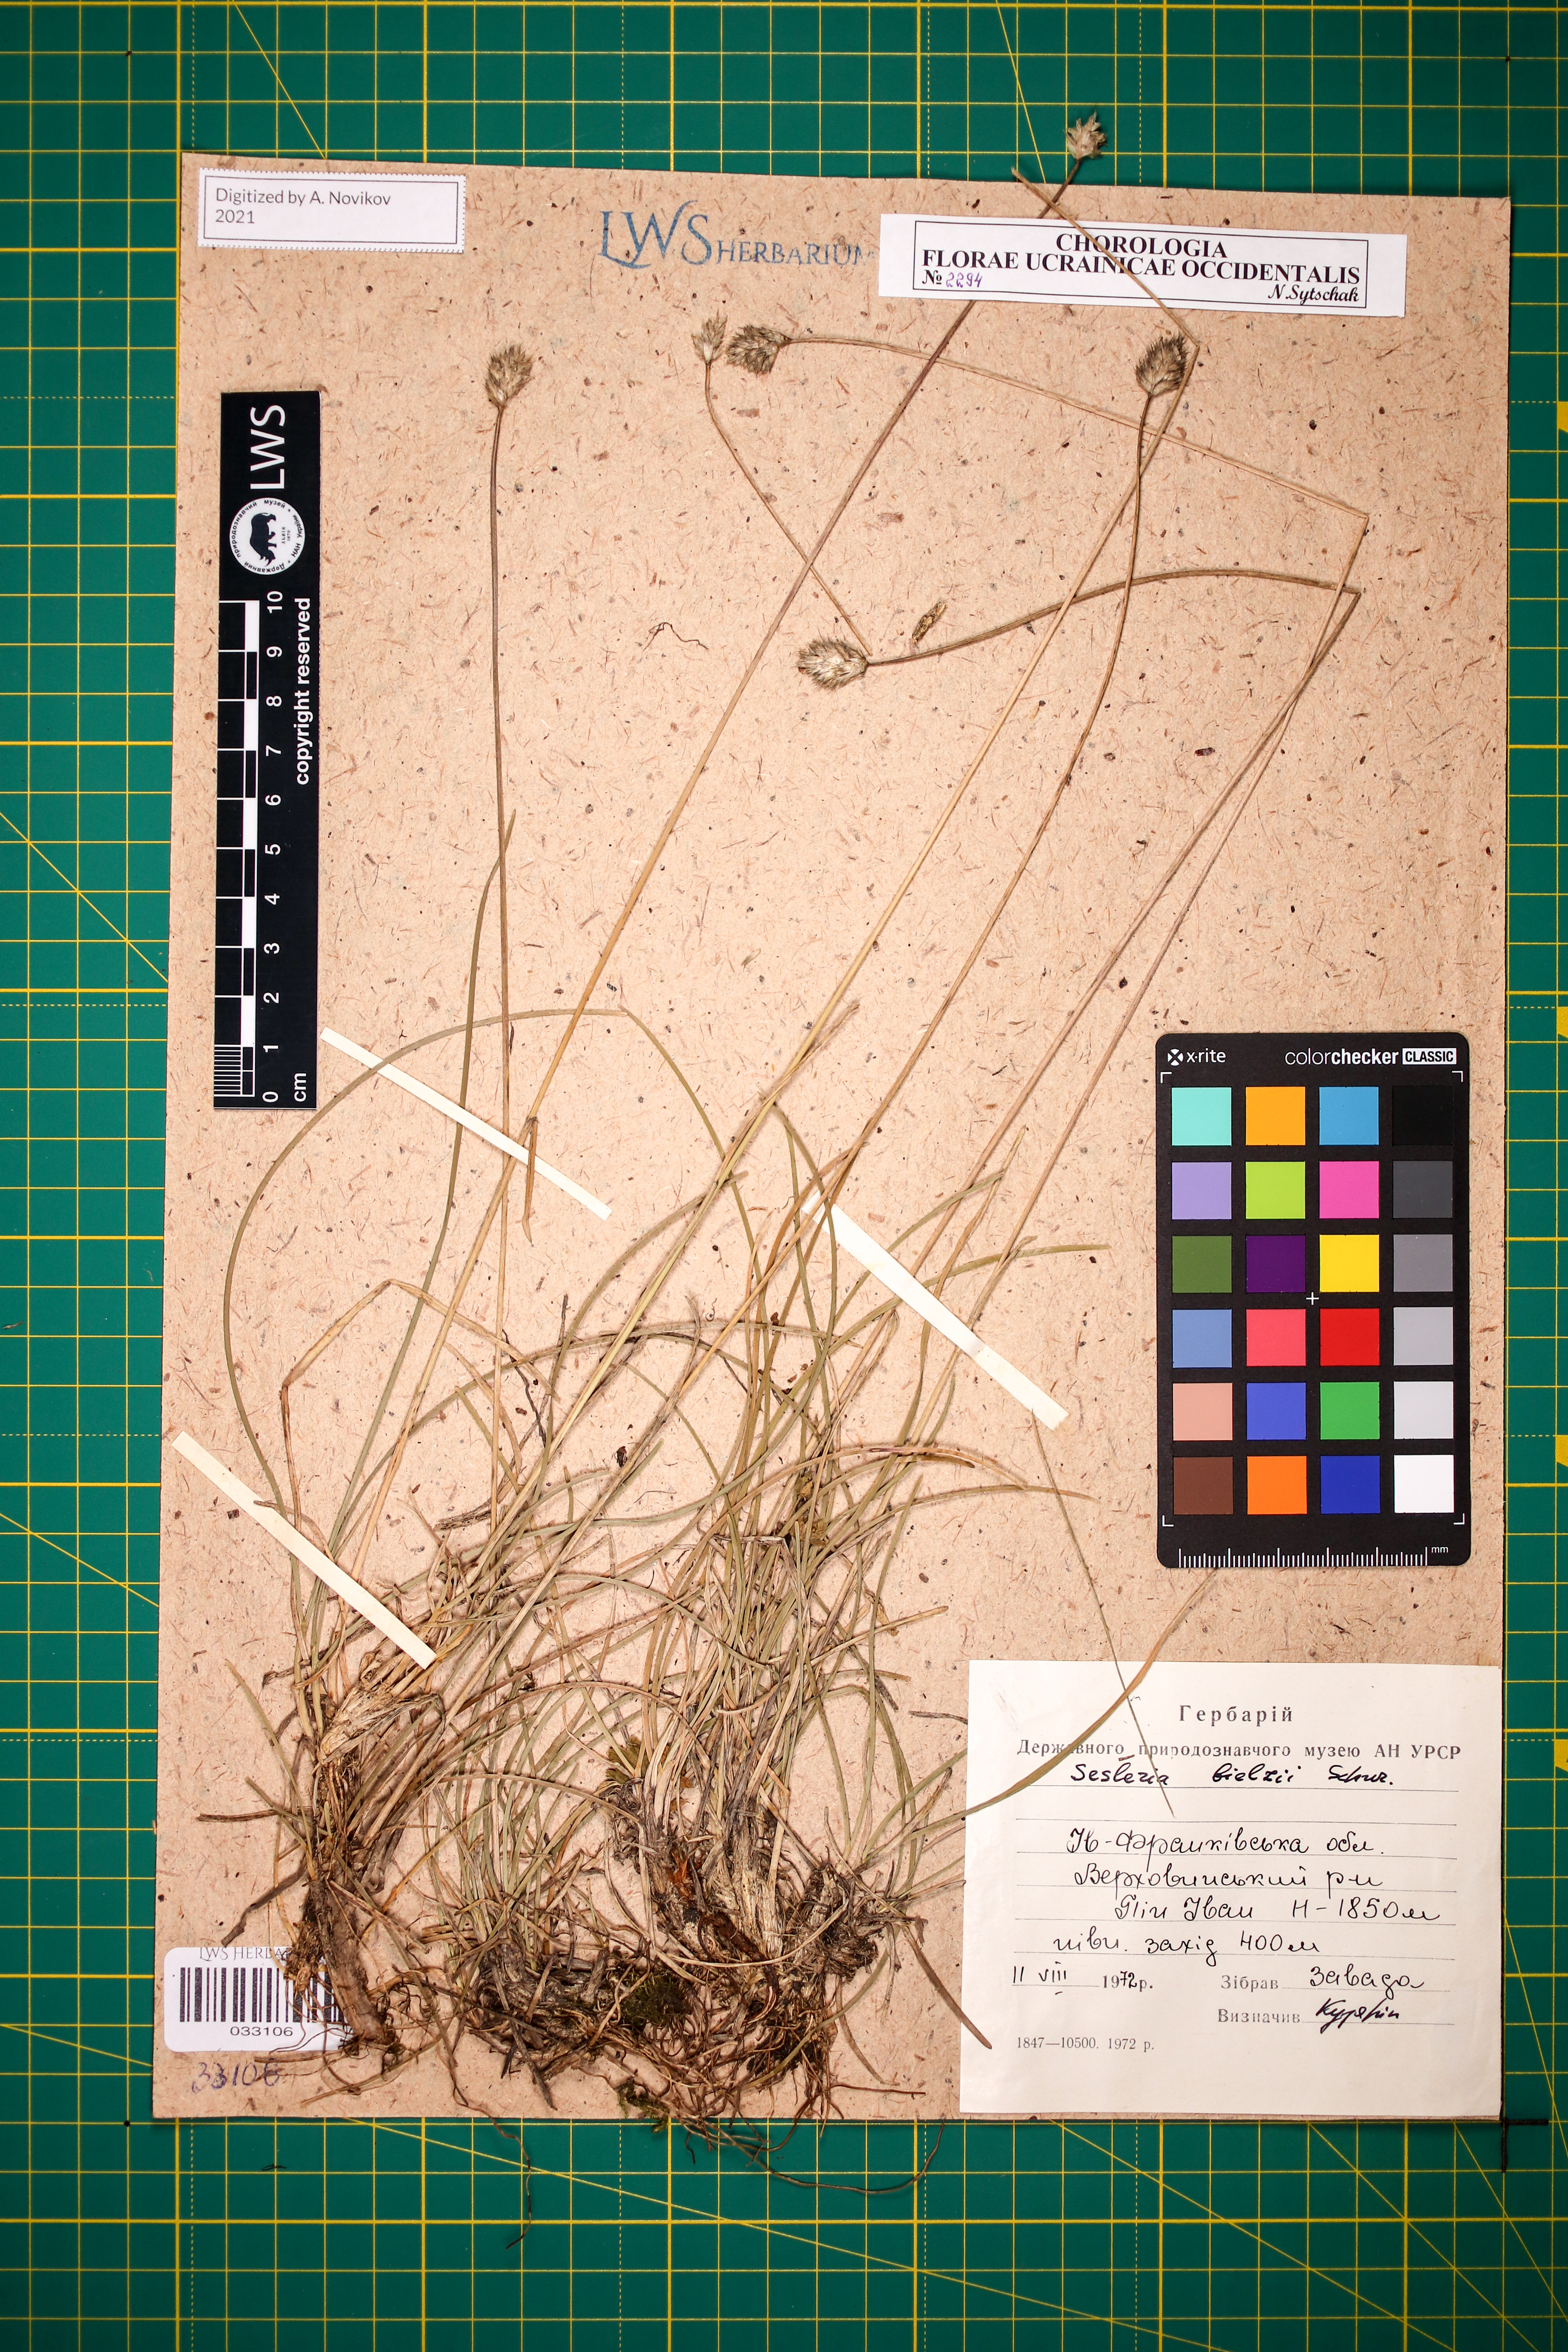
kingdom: Plantae
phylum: Tracheophyta
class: Liliopsida
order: Poales
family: Poaceae
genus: Sesleria
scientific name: Sesleria bielzii
